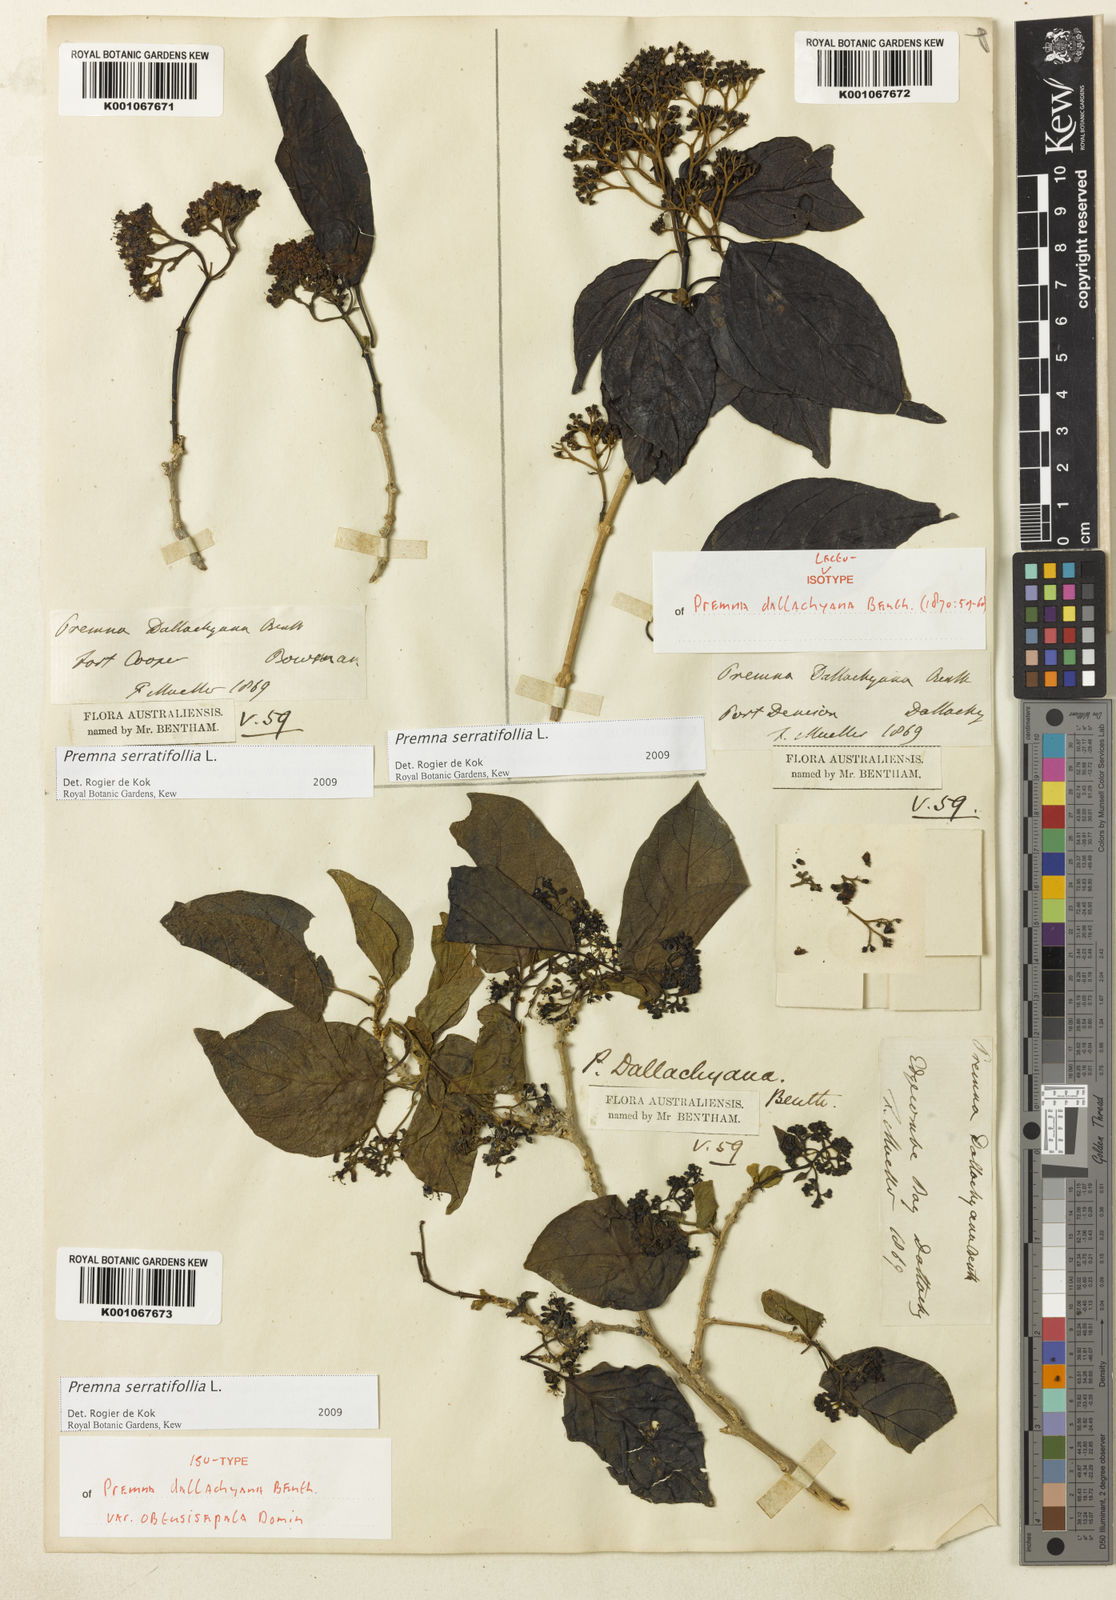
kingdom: Plantae
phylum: Tracheophyta
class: Magnoliopsida
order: Lamiales
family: Lamiaceae
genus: Premna
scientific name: Premna serratifolia
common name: Bastard guelder
